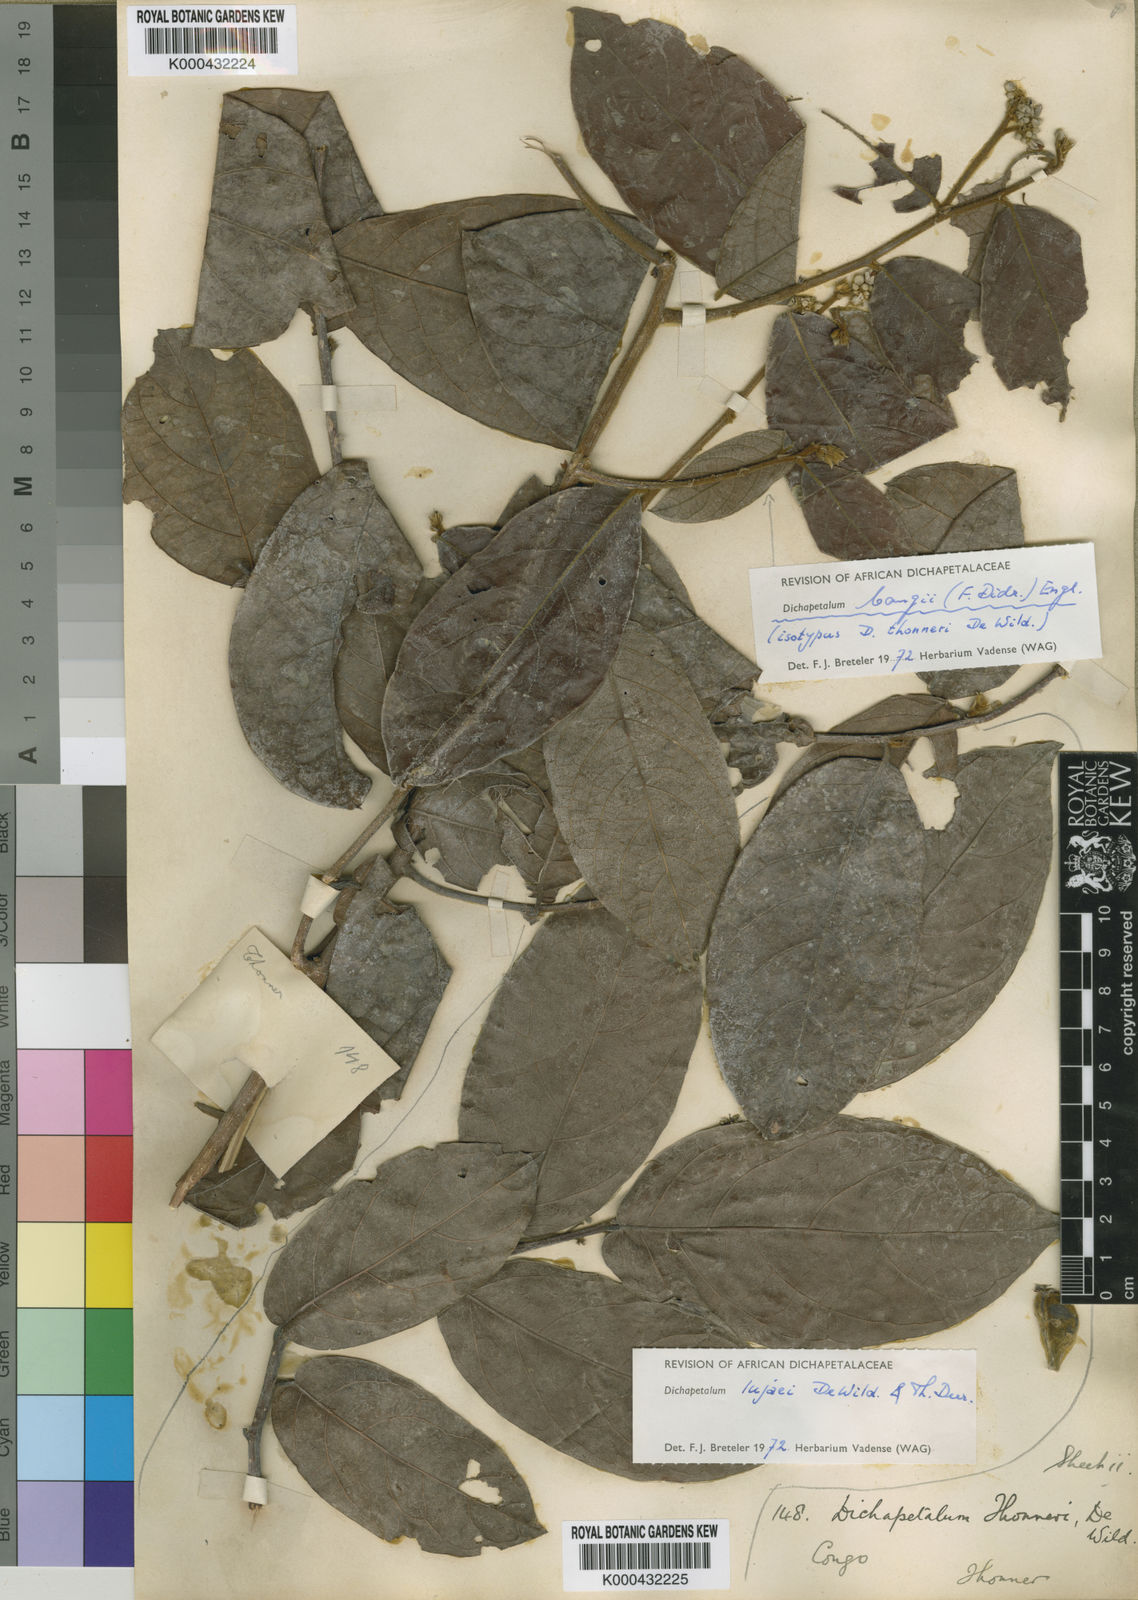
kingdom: Plantae
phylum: Tracheophyta
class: Magnoliopsida
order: Malpighiales
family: Dichapetalaceae
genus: Dichapetalum
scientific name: Dichapetalum bangii
